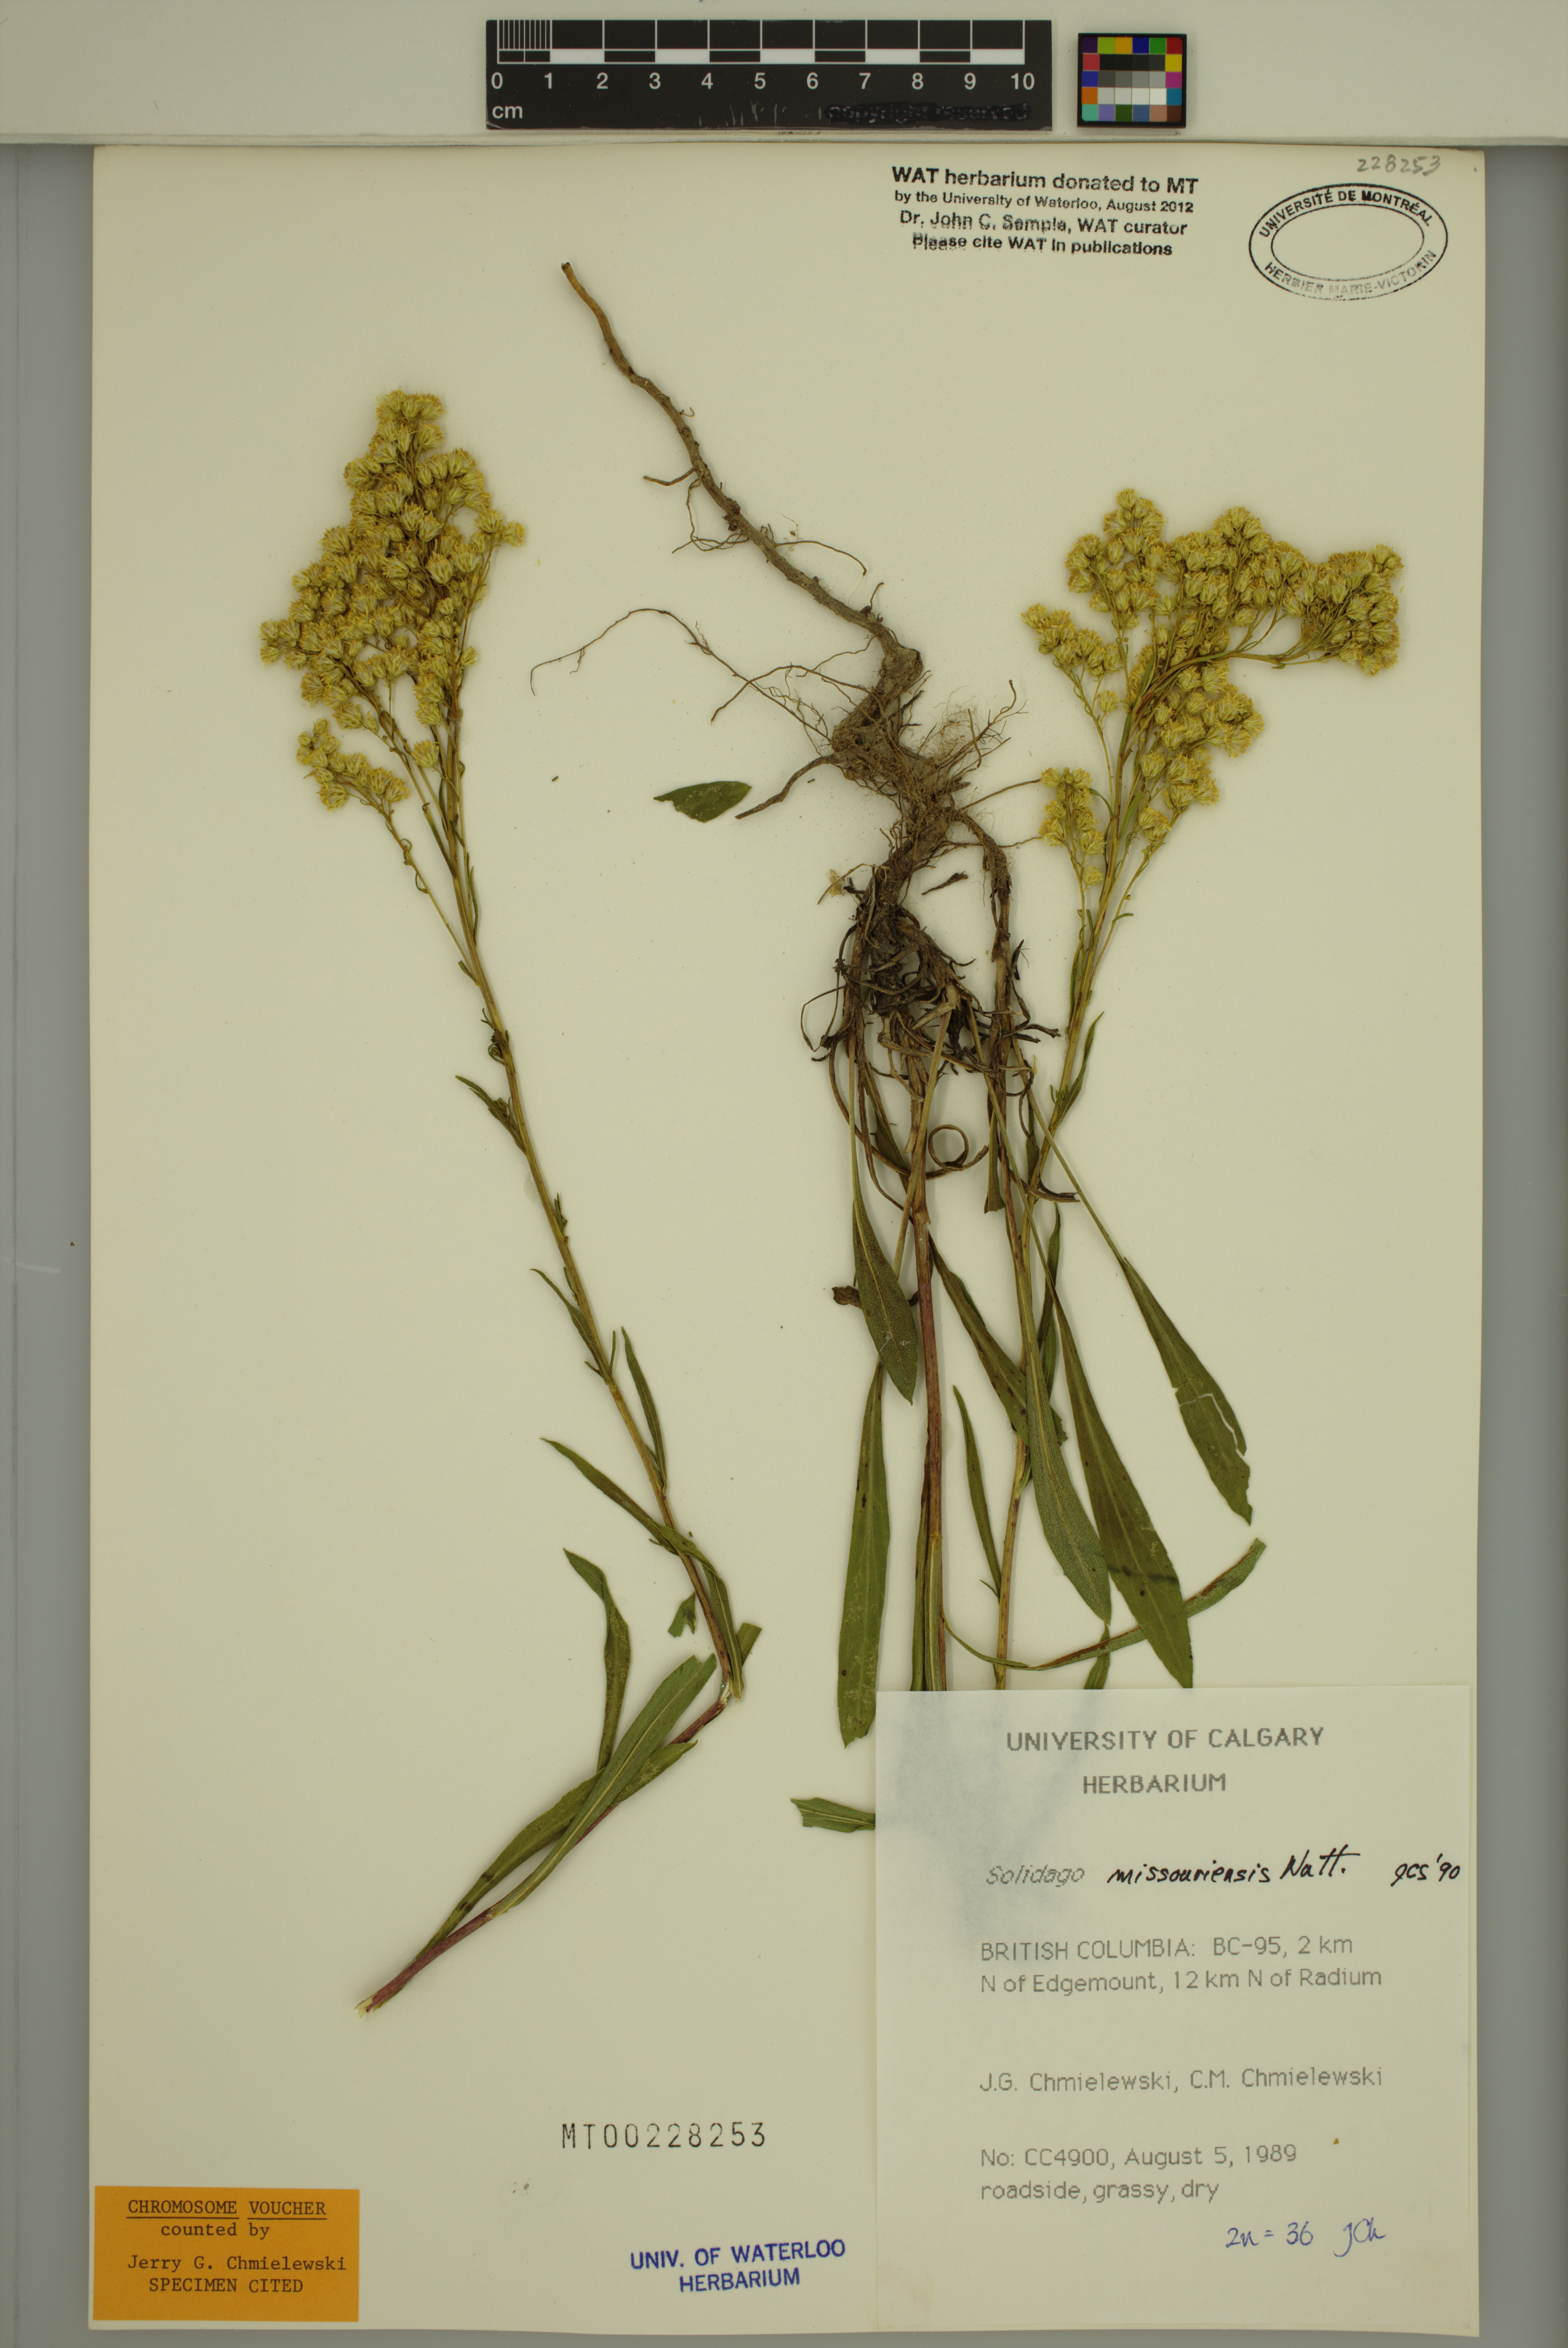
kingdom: Plantae
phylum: Tracheophyta
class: Magnoliopsida
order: Asterales
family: Asteraceae
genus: Solidago
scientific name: Solidago missouriensis
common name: Prairie goldenrod
